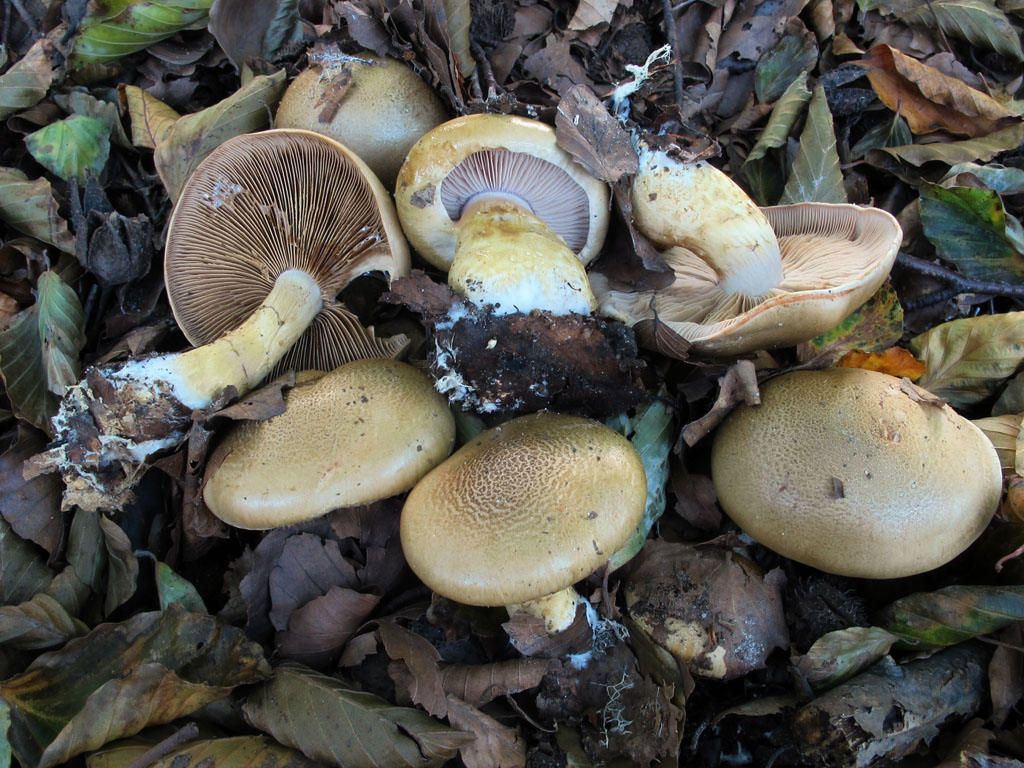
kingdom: Fungi
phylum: Basidiomycota
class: Agaricomycetes
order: Agaricales
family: Cortinariaceae
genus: Phlegmacium
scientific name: Phlegmacium cliduchus
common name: majs-slørhat
